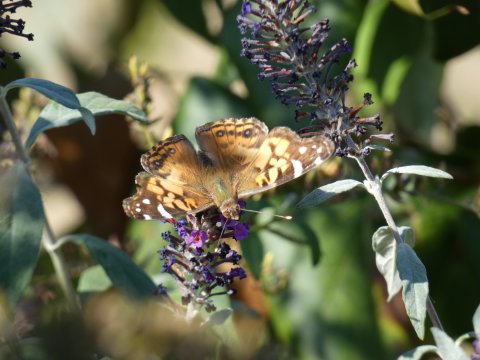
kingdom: Animalia
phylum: Arthropoda
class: Insecta
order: Lepidoptera
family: Nymphalidae
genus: Vanessa
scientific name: Vanessa virginiensis
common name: American Lady
